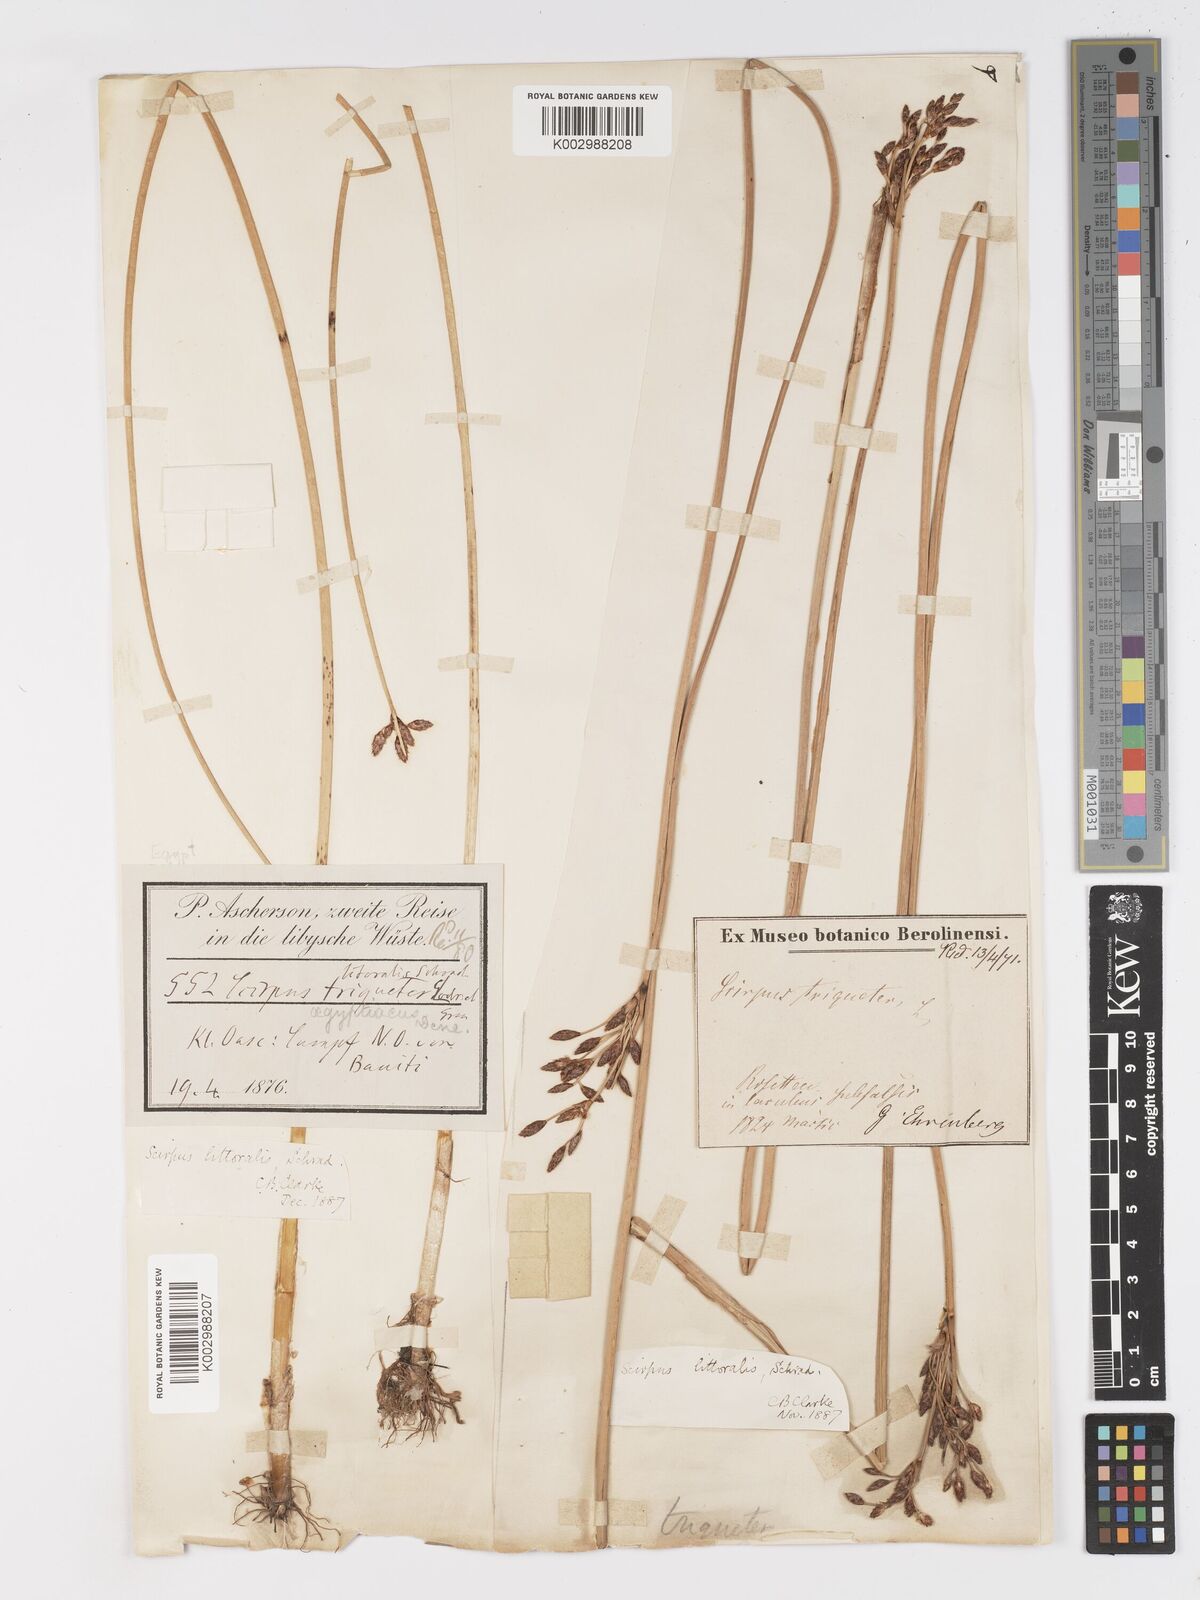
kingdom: Plantae
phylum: Tracheophyta
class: Liliopsida
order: Poales
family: Cyperaceae
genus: Schoenoplectus
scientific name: Schoenoplectus litoralis
